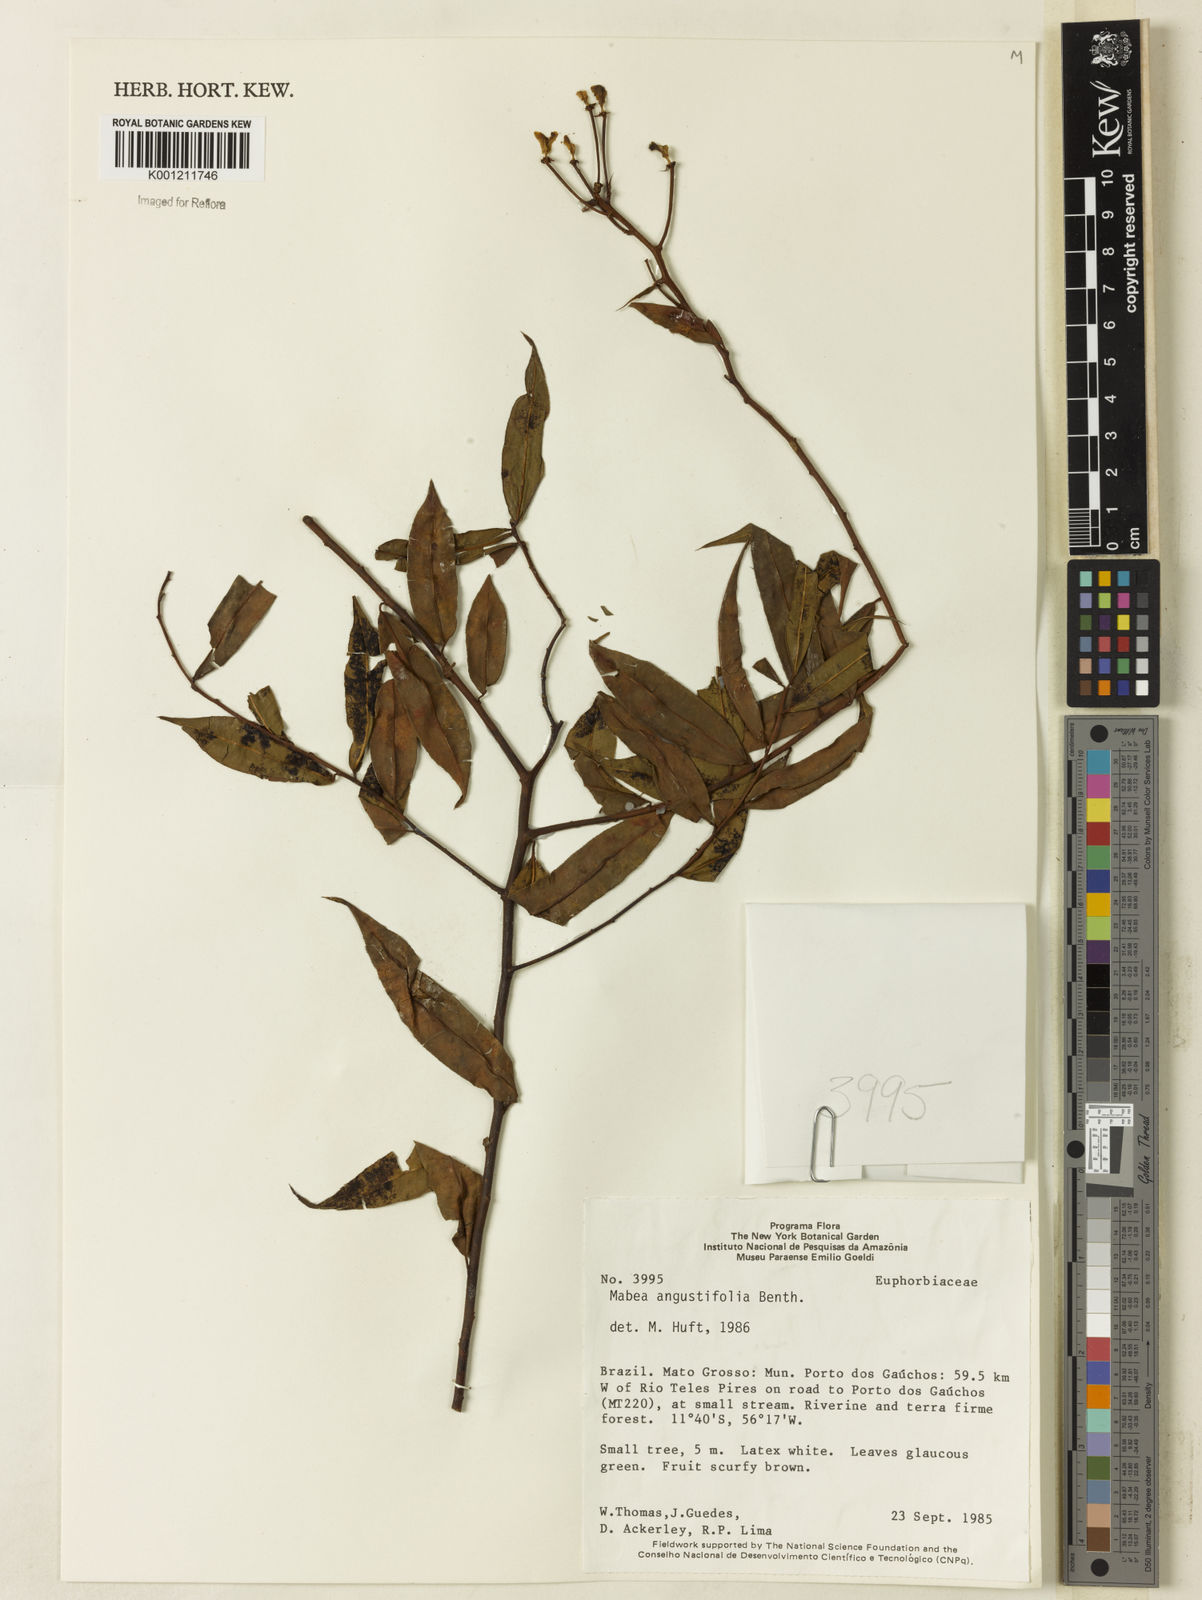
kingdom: Plantae
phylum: Tracheophyta
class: Magnoliopsida
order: Malpighiales
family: Euphorbiaceae
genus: Mabea
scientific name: Mabea angustifolia
